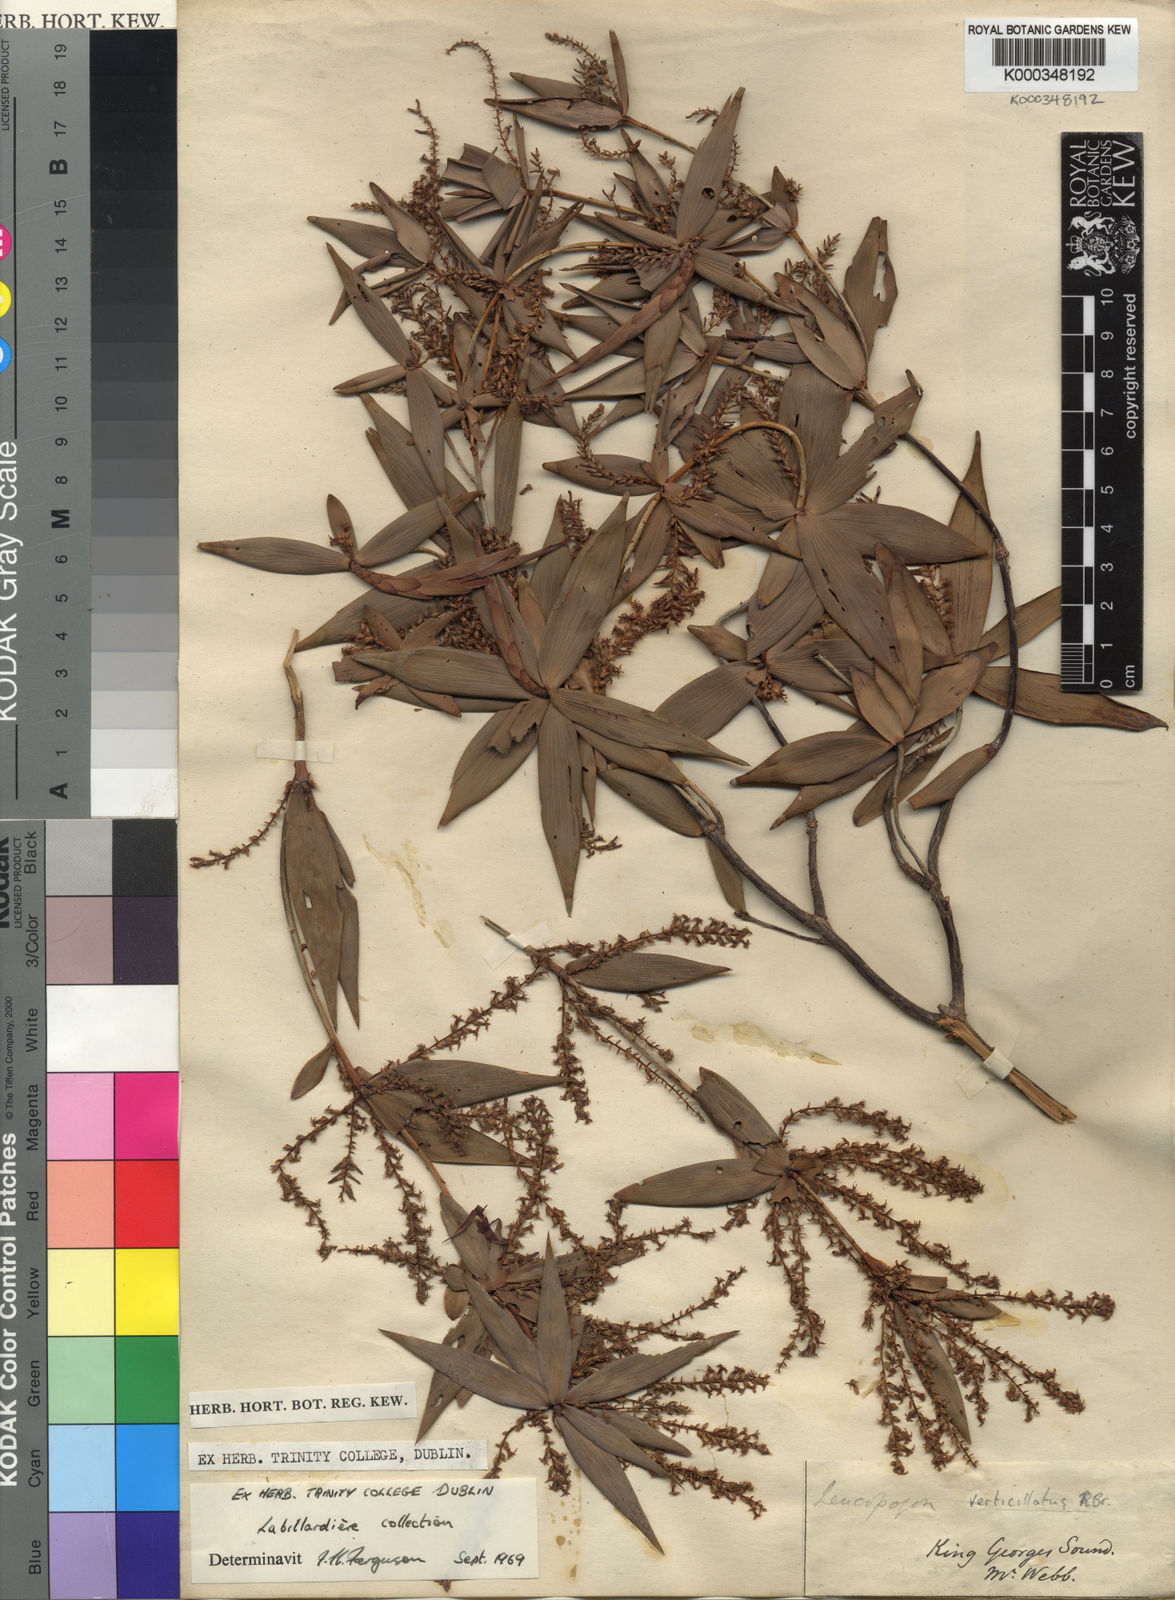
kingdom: Plantae
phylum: Tracheophyta
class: Magnoliopsida
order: Ericales
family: Ericaceae
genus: Leucopogon
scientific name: Leucopogon verticillatus
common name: Tasselshrub
